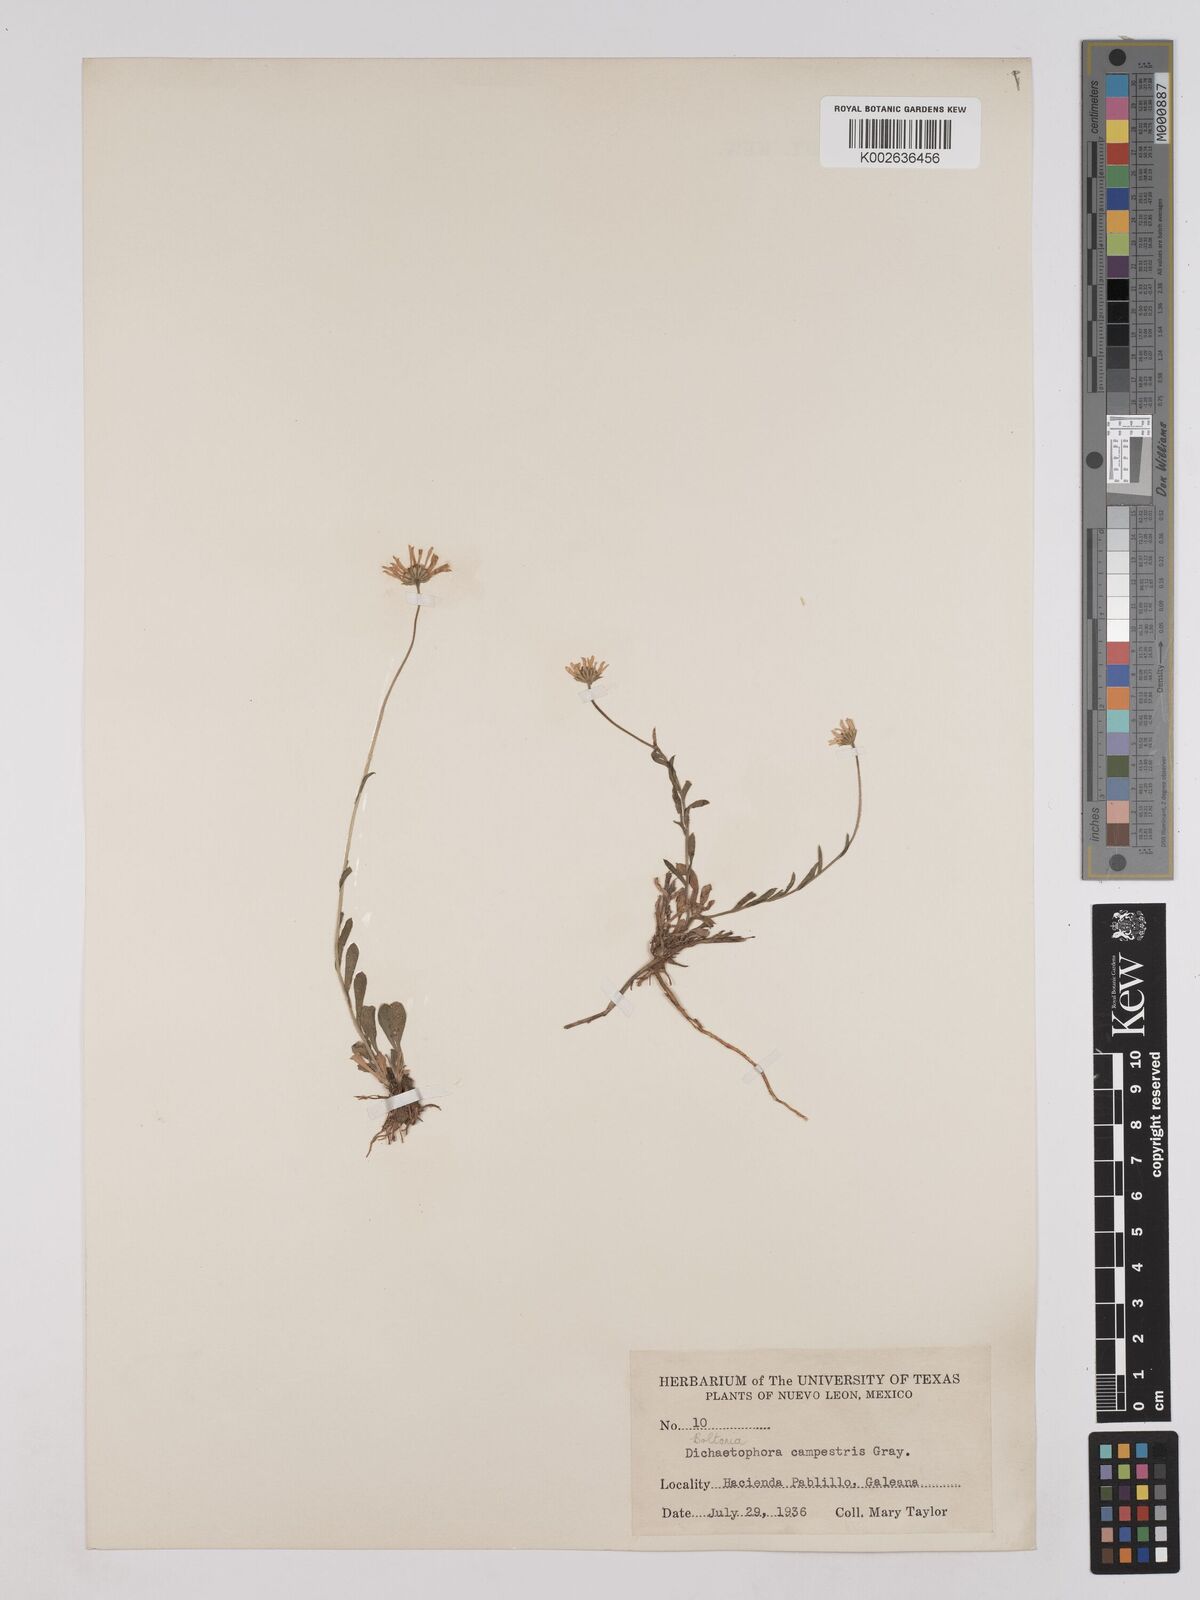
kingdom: Plantae
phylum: Tracheophyta
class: Magnoliopsida
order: Asterales
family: Asteraceae
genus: Dichaetophora
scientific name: Dichaetophora campestris
